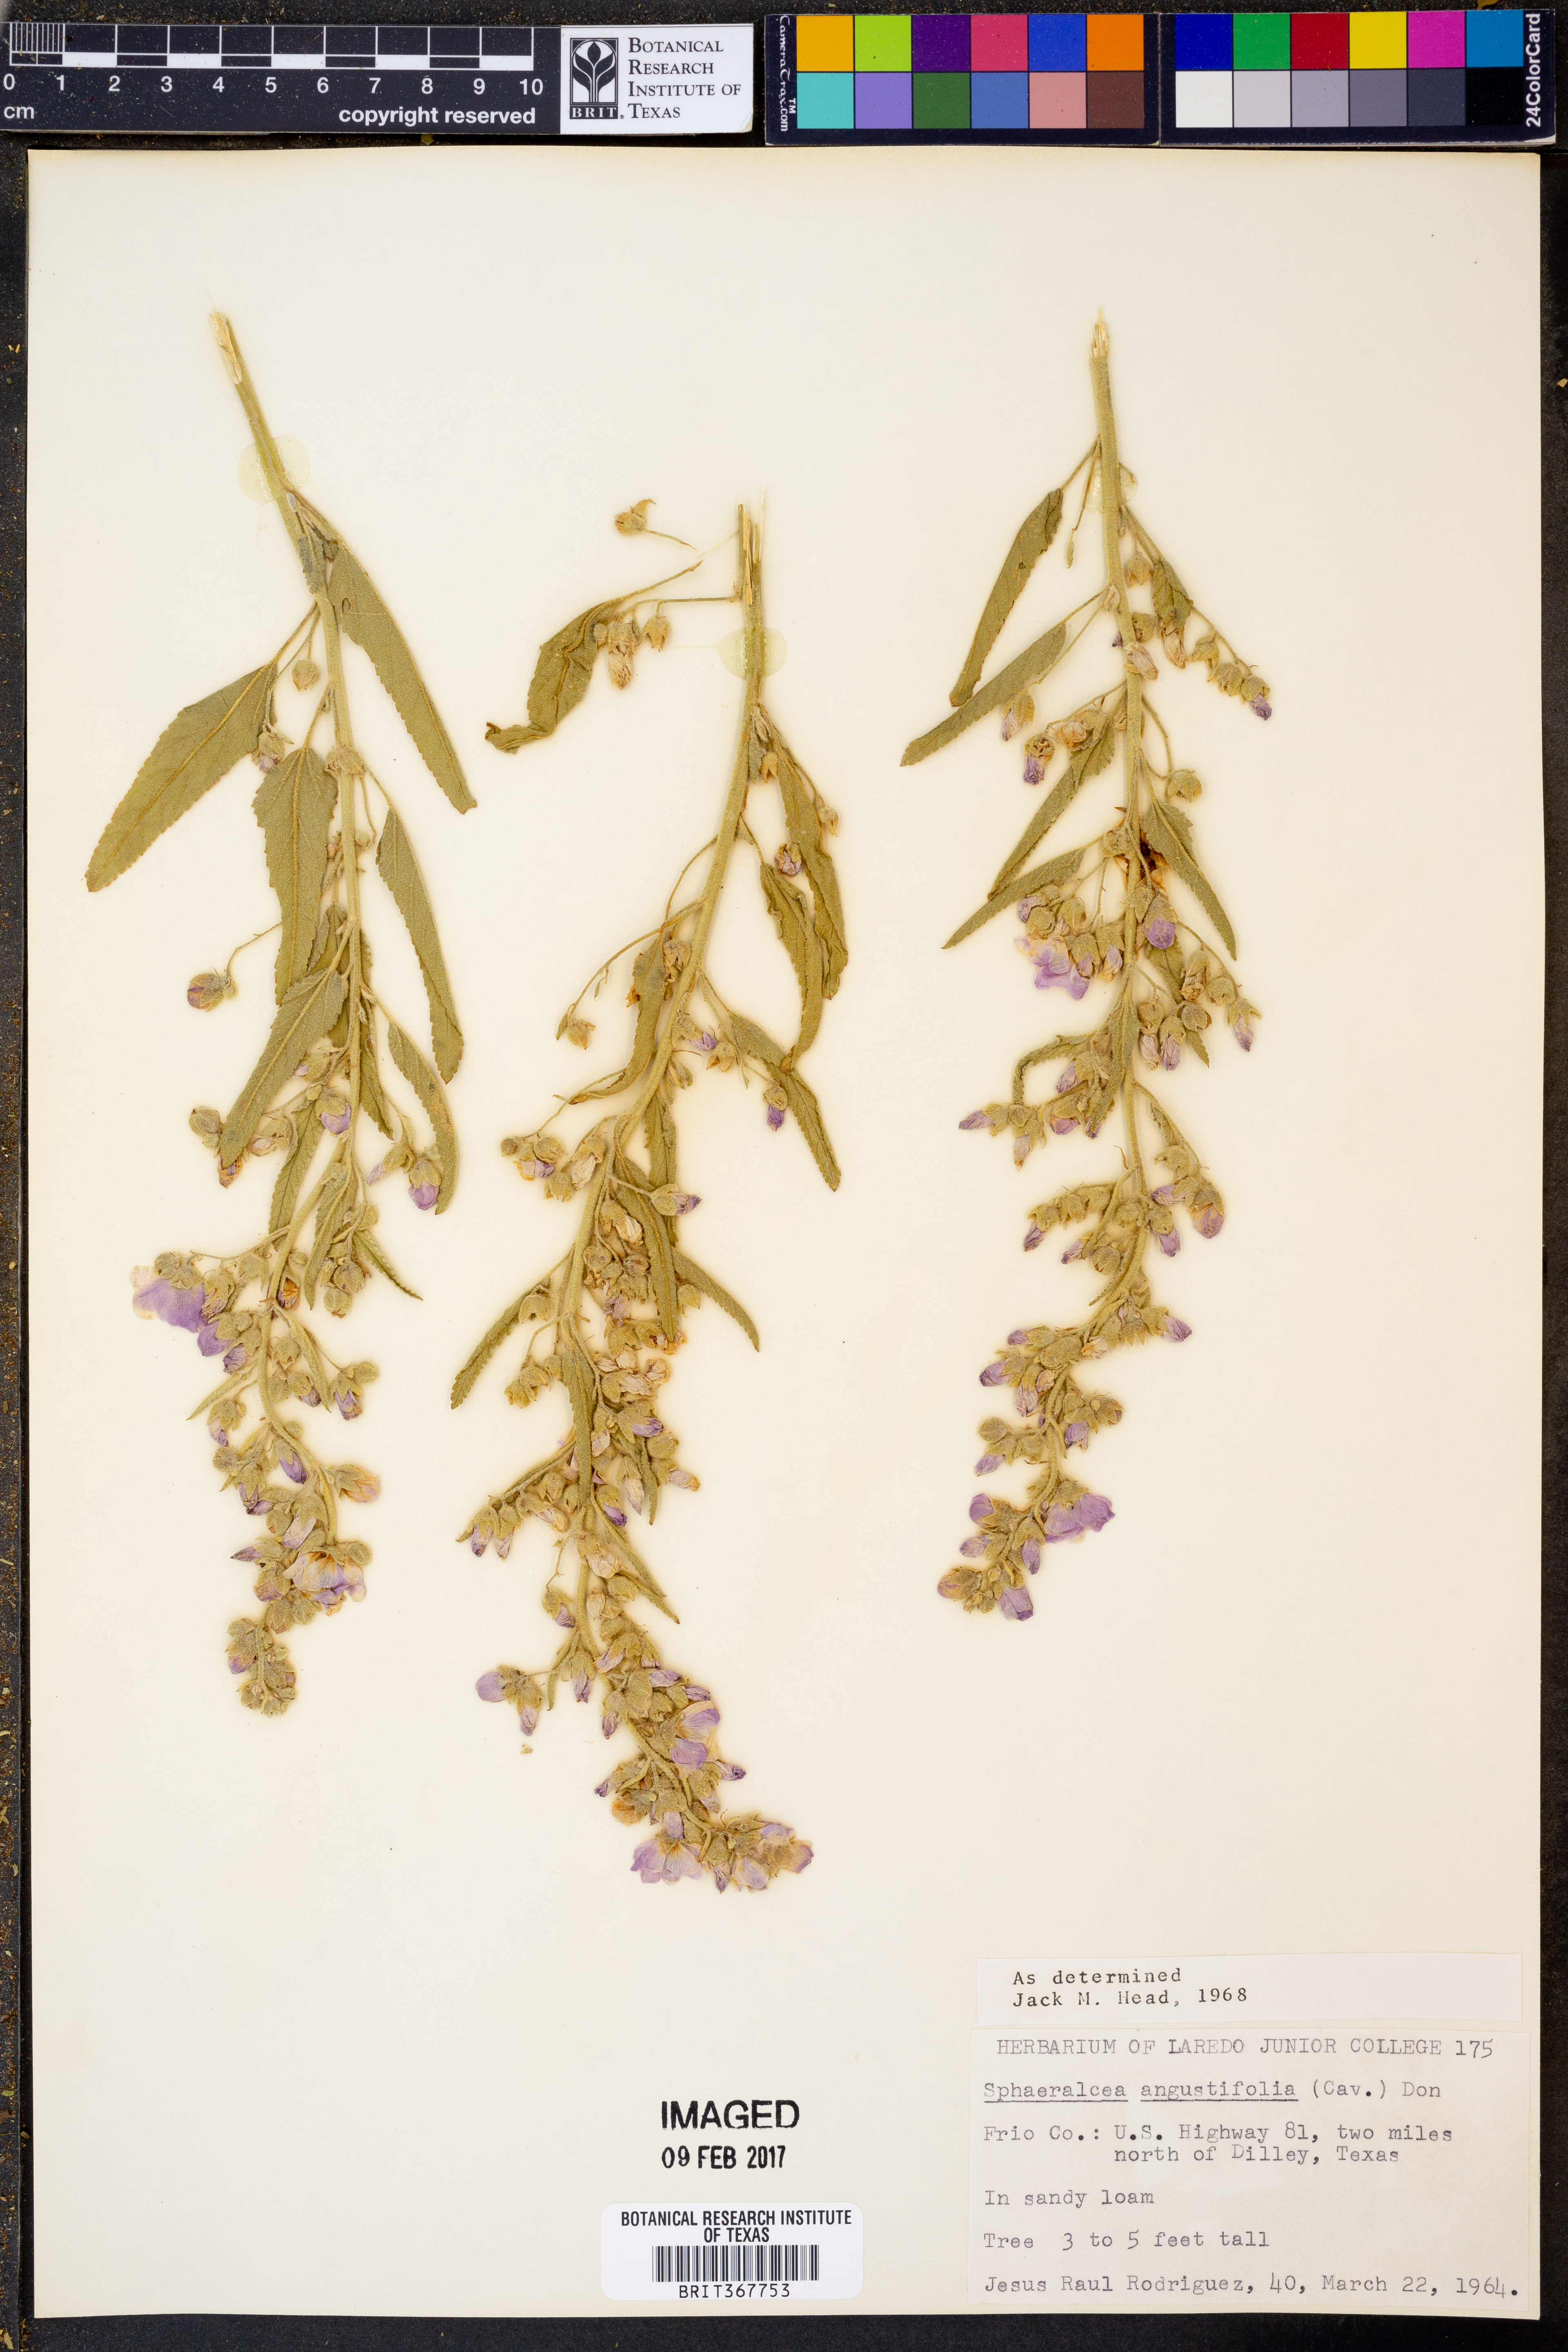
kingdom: Plantae
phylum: Tracheophyta
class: Magnoliopsida
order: Malvales
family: Malvaceae
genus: Sphaeralcea
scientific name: Sphaeralcea angustifolia
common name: Copper globe-mallow
